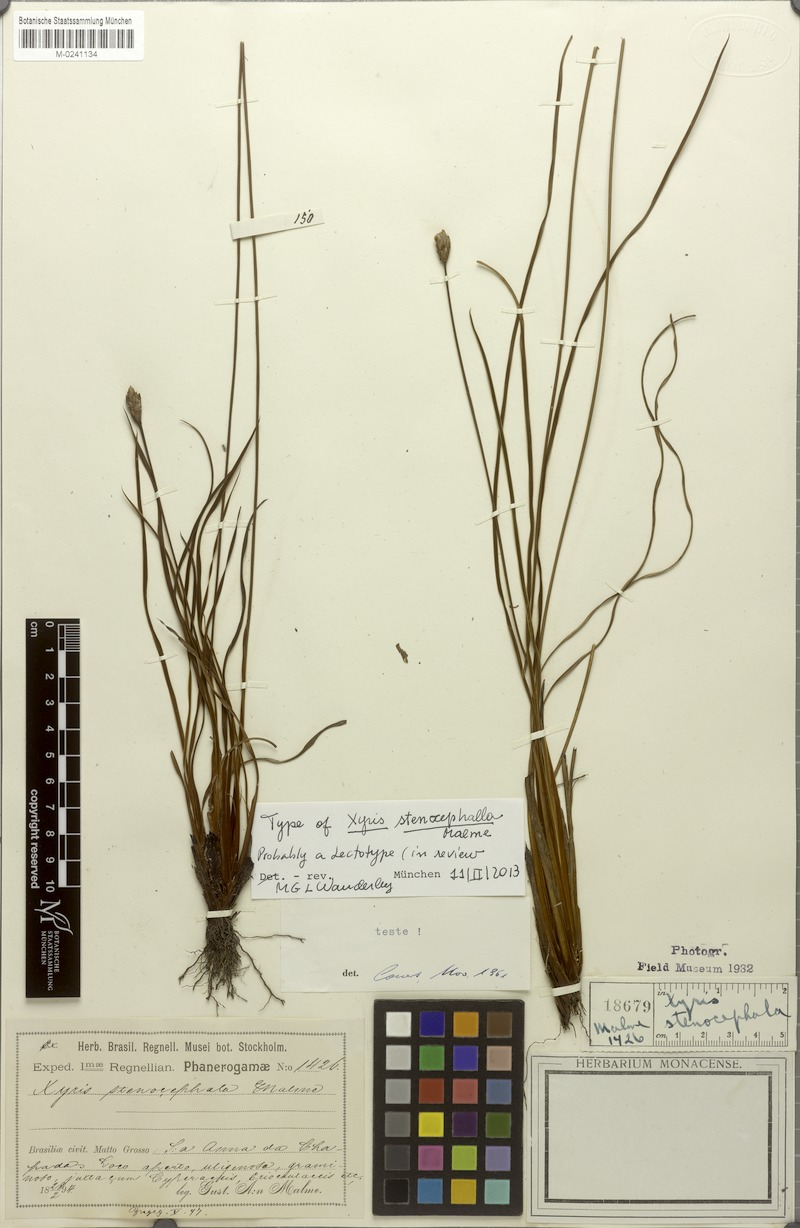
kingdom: Plantae
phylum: Tracheophyta
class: Liliopsida
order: Poales
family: Xyridaceae
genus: Xyris
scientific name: Xyris stenocephala
